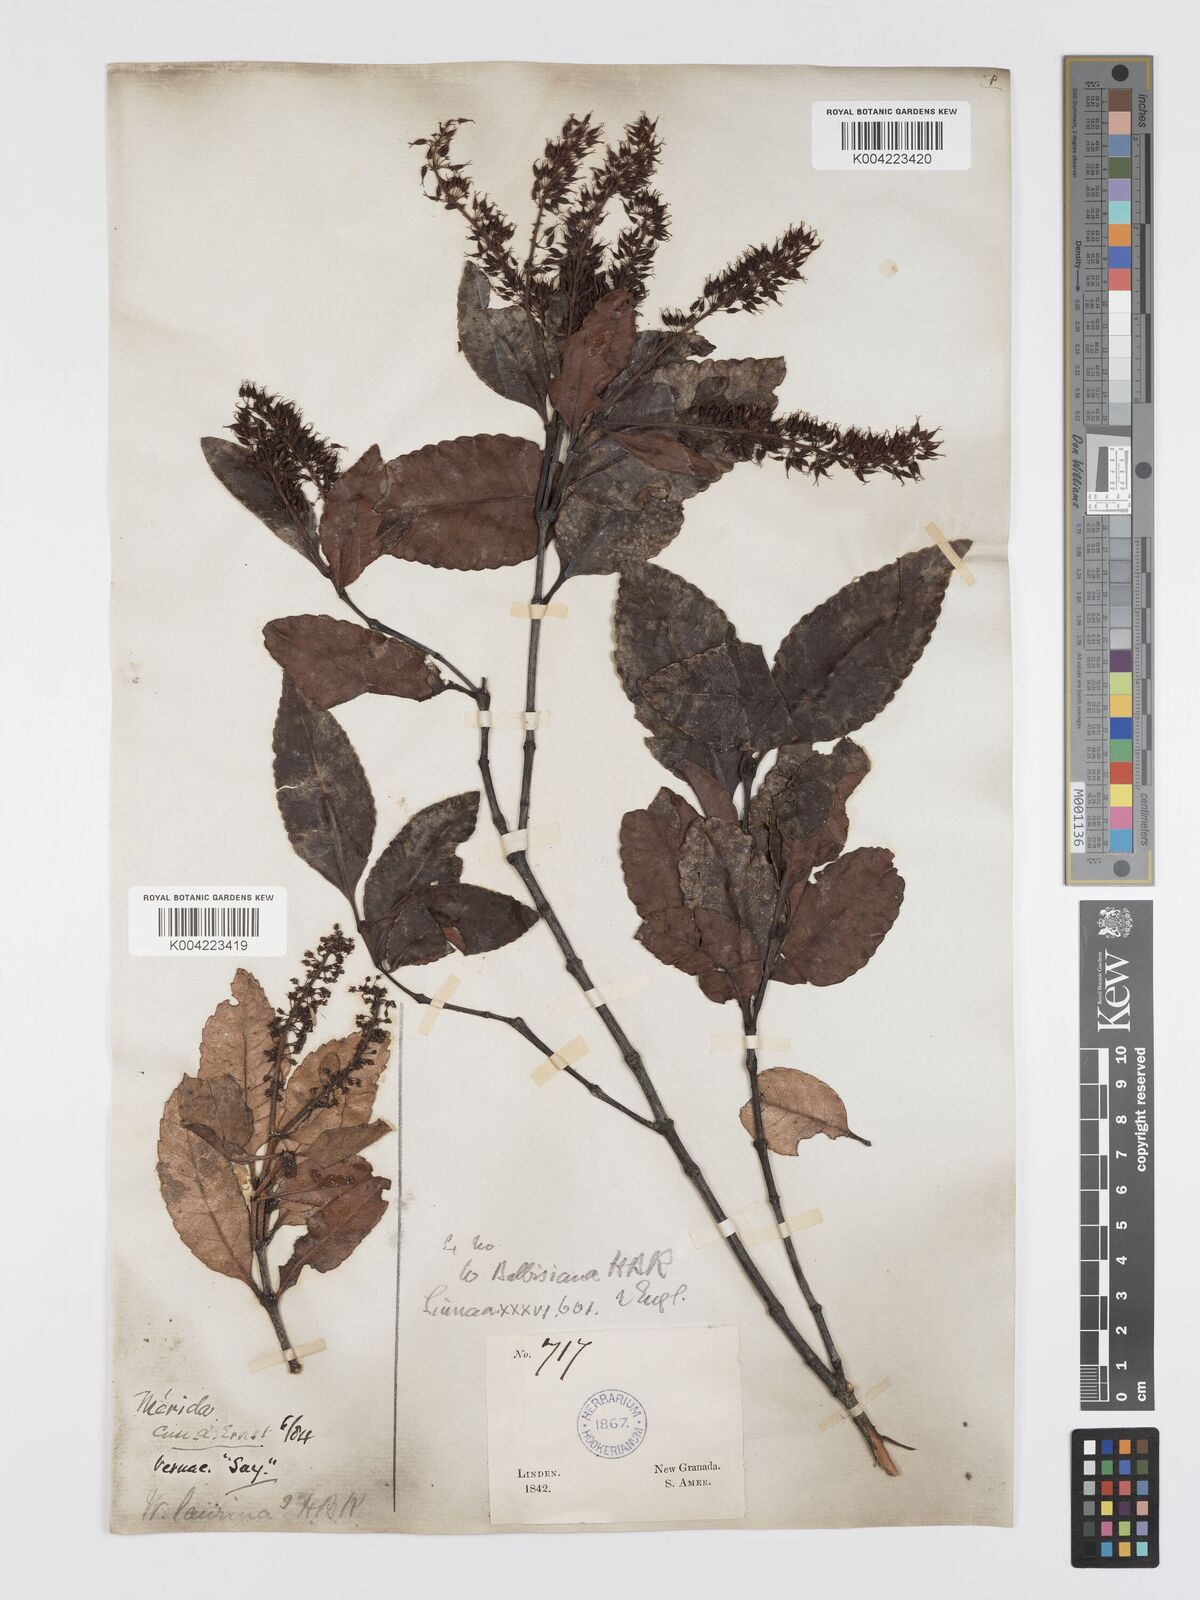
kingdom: Plantae
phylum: Tracheophyta
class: Magnoliopsida
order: Oxalidales
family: Cunoniaceae
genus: Weinmannia
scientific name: Weinmannia balbisana
